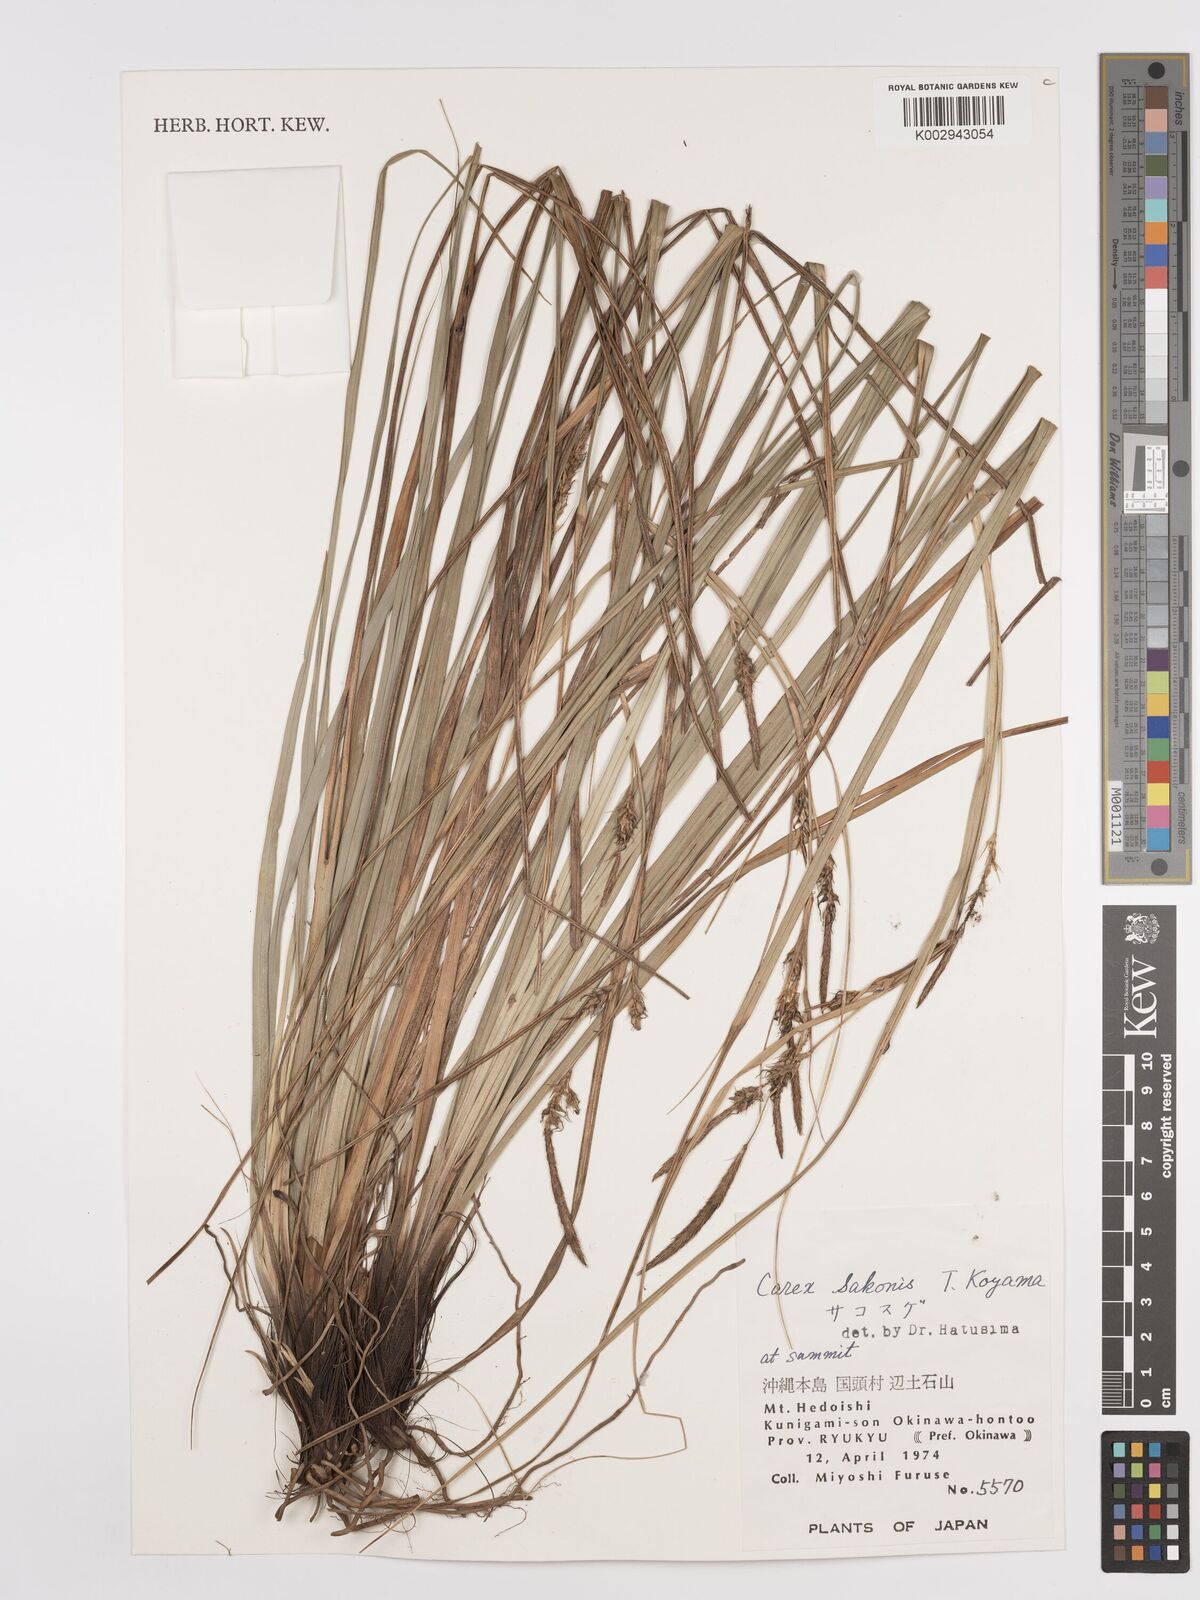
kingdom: Plantae
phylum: Tracheophyta
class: Liliopsida
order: Poales
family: Cyperaceae
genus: Carex
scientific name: Carex wahuensis
